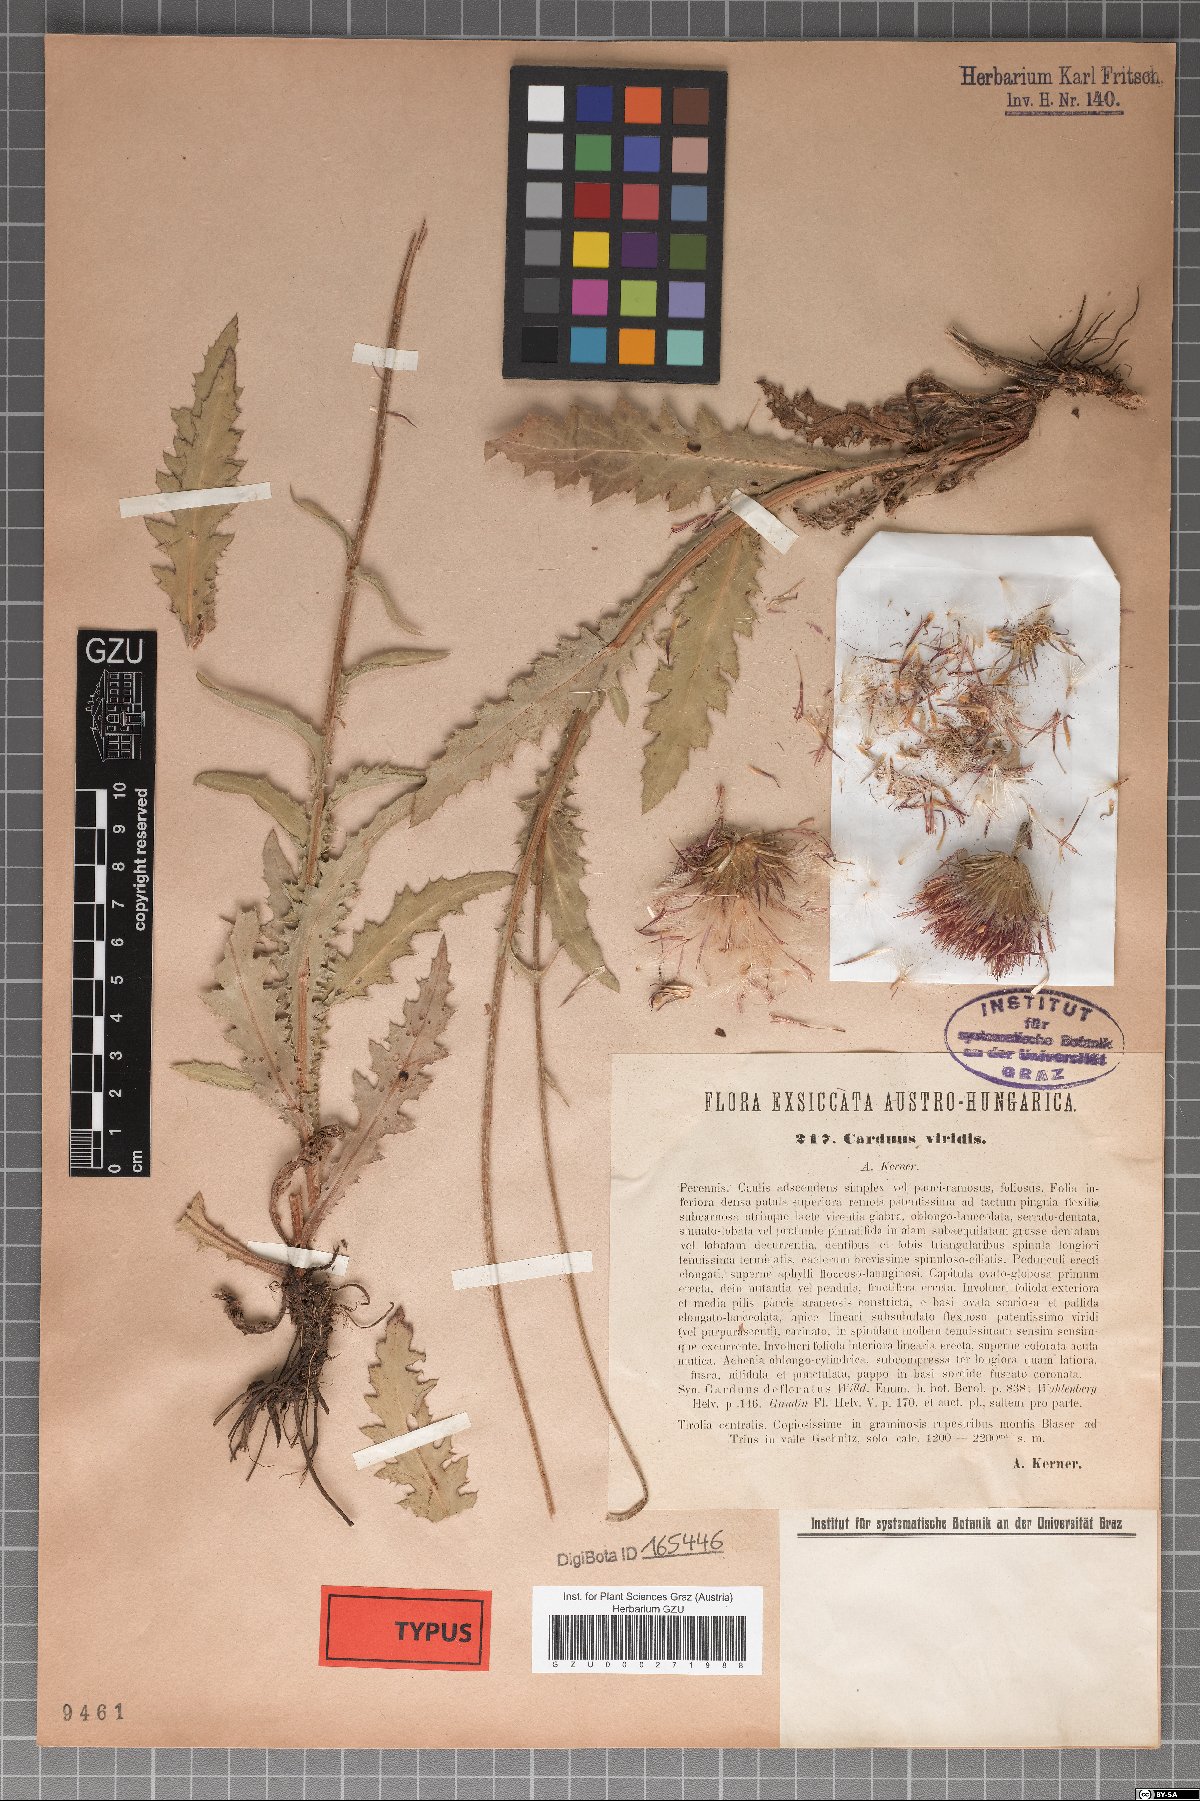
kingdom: Plantae
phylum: Tracheophyta
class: Magnoliopsida
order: Asterales
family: Asteraceae
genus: Carduus
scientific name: Carduus defloratus
